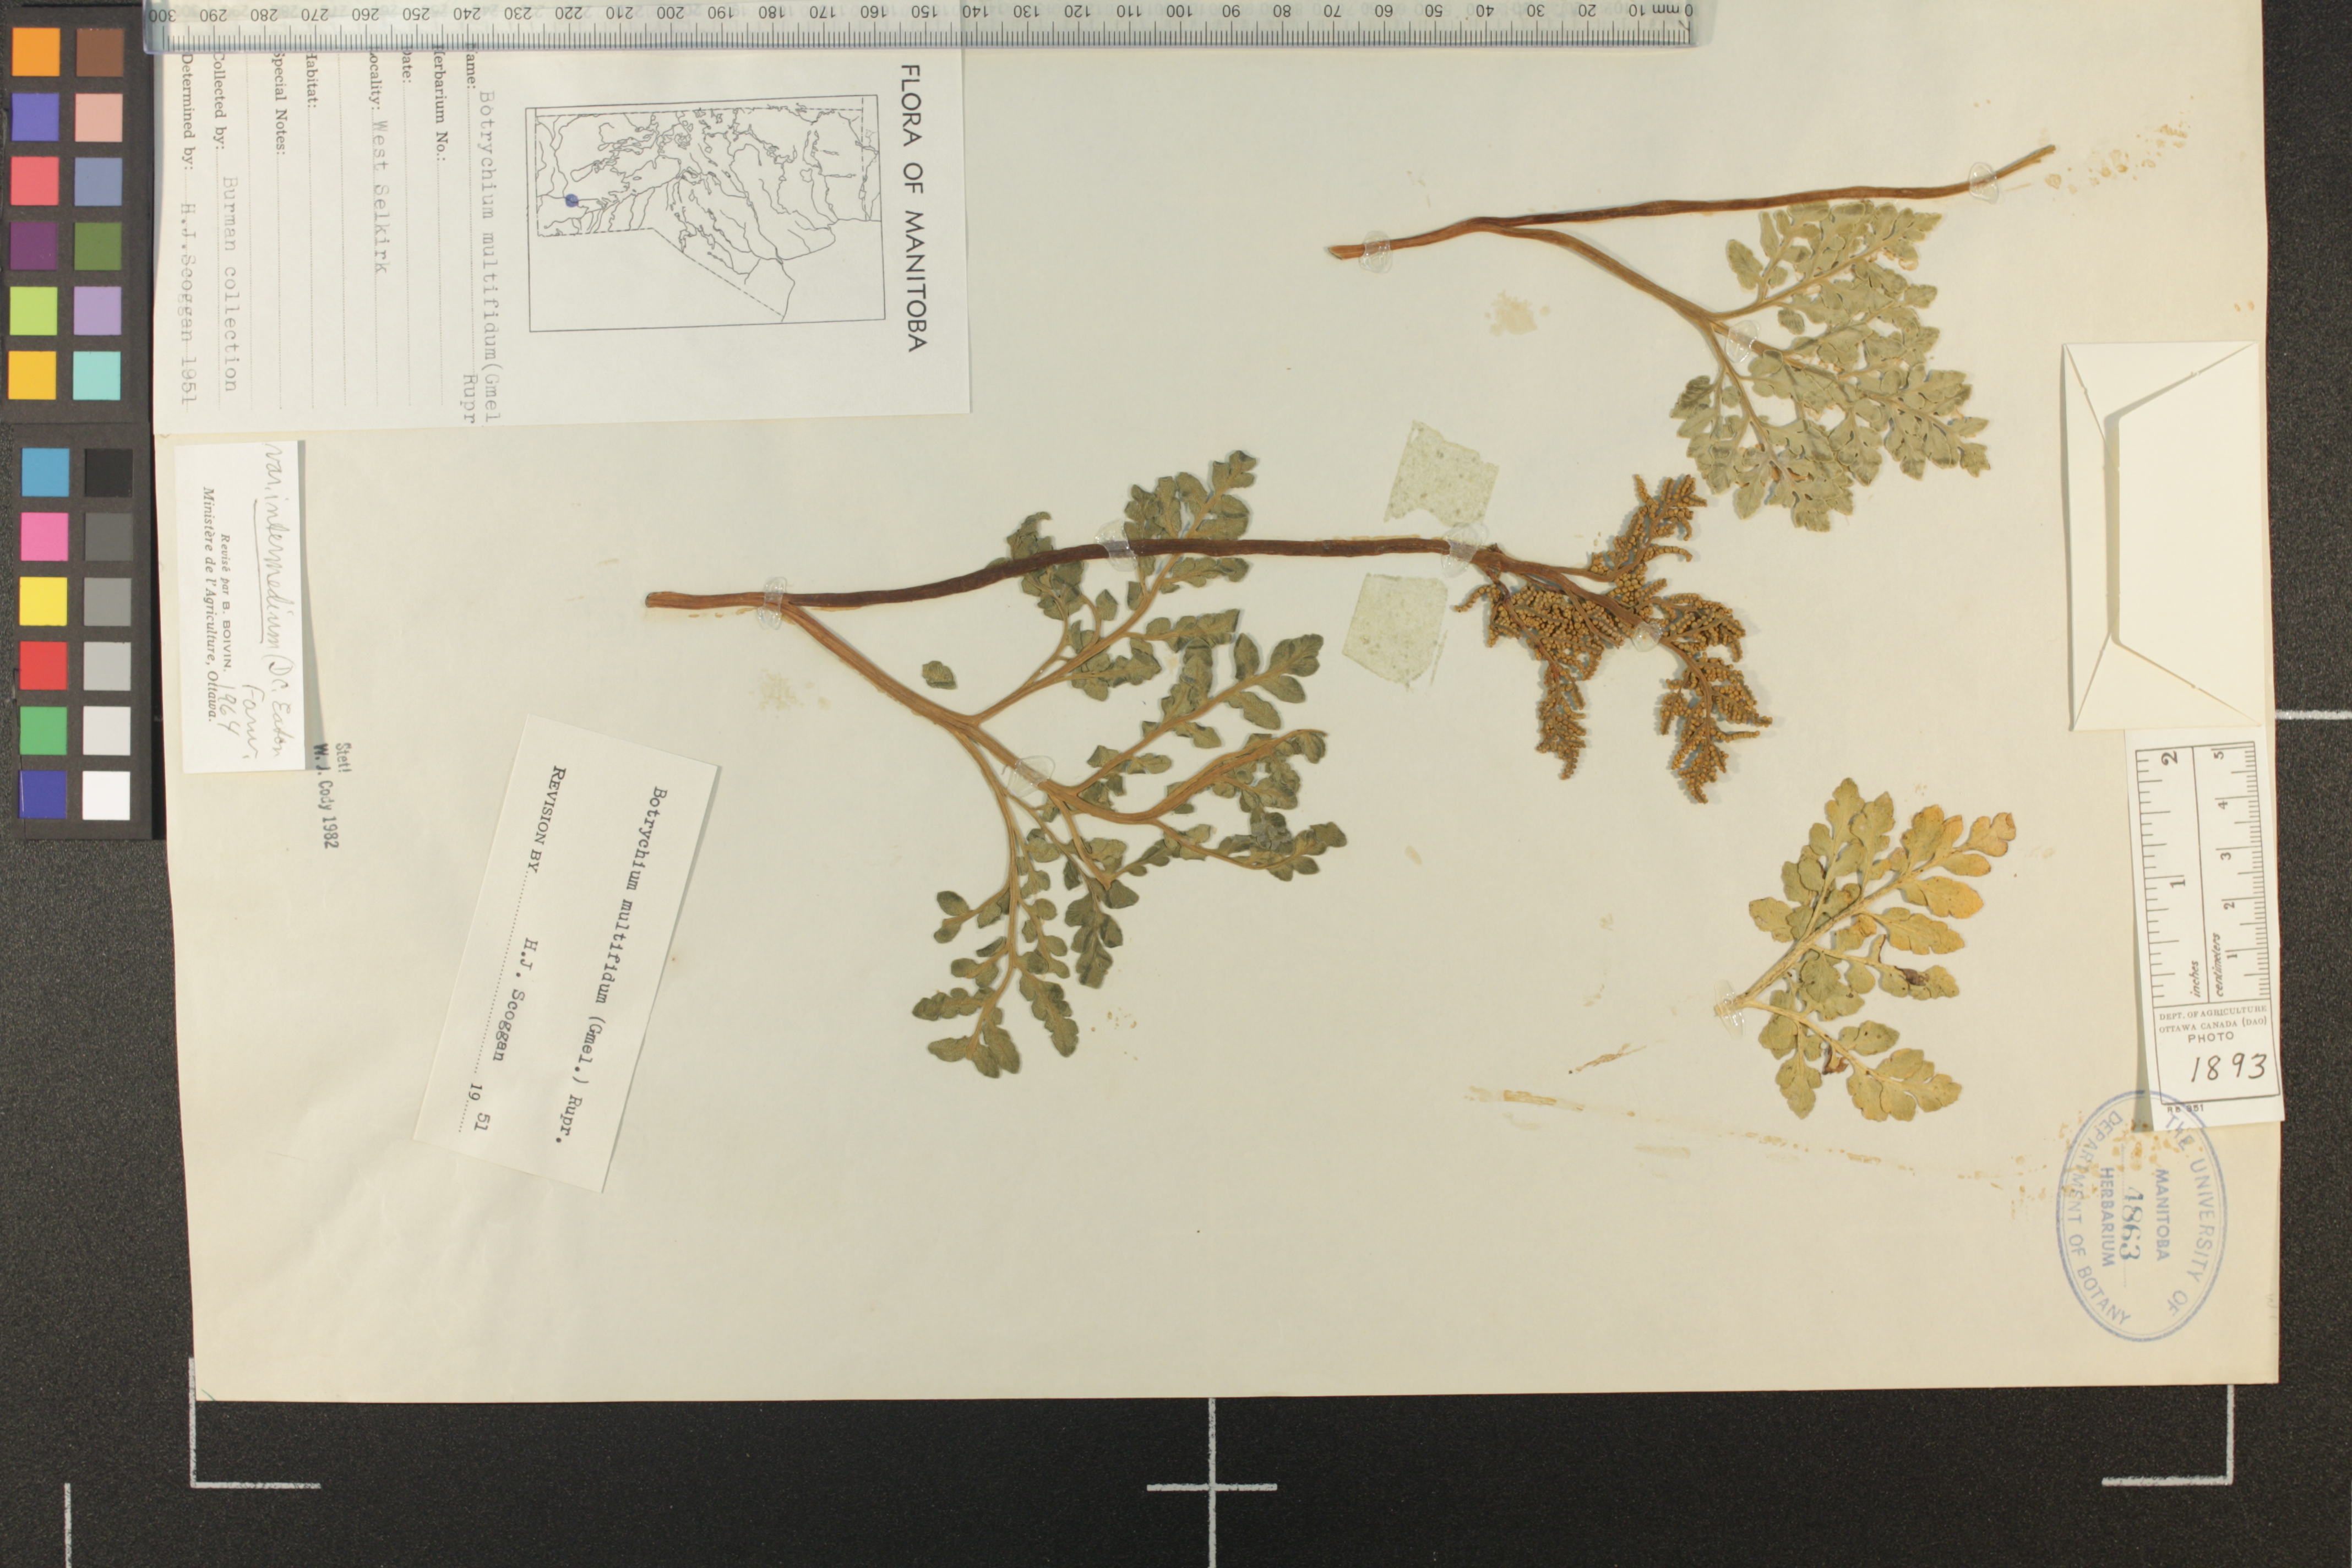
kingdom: Plantae
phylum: Tracheophyta
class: Polypodiopsida
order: Ophioglossales
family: Ophioglossaceae
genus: Sceptridium
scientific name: Sceptridium multifidum
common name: Leathery grape fern
